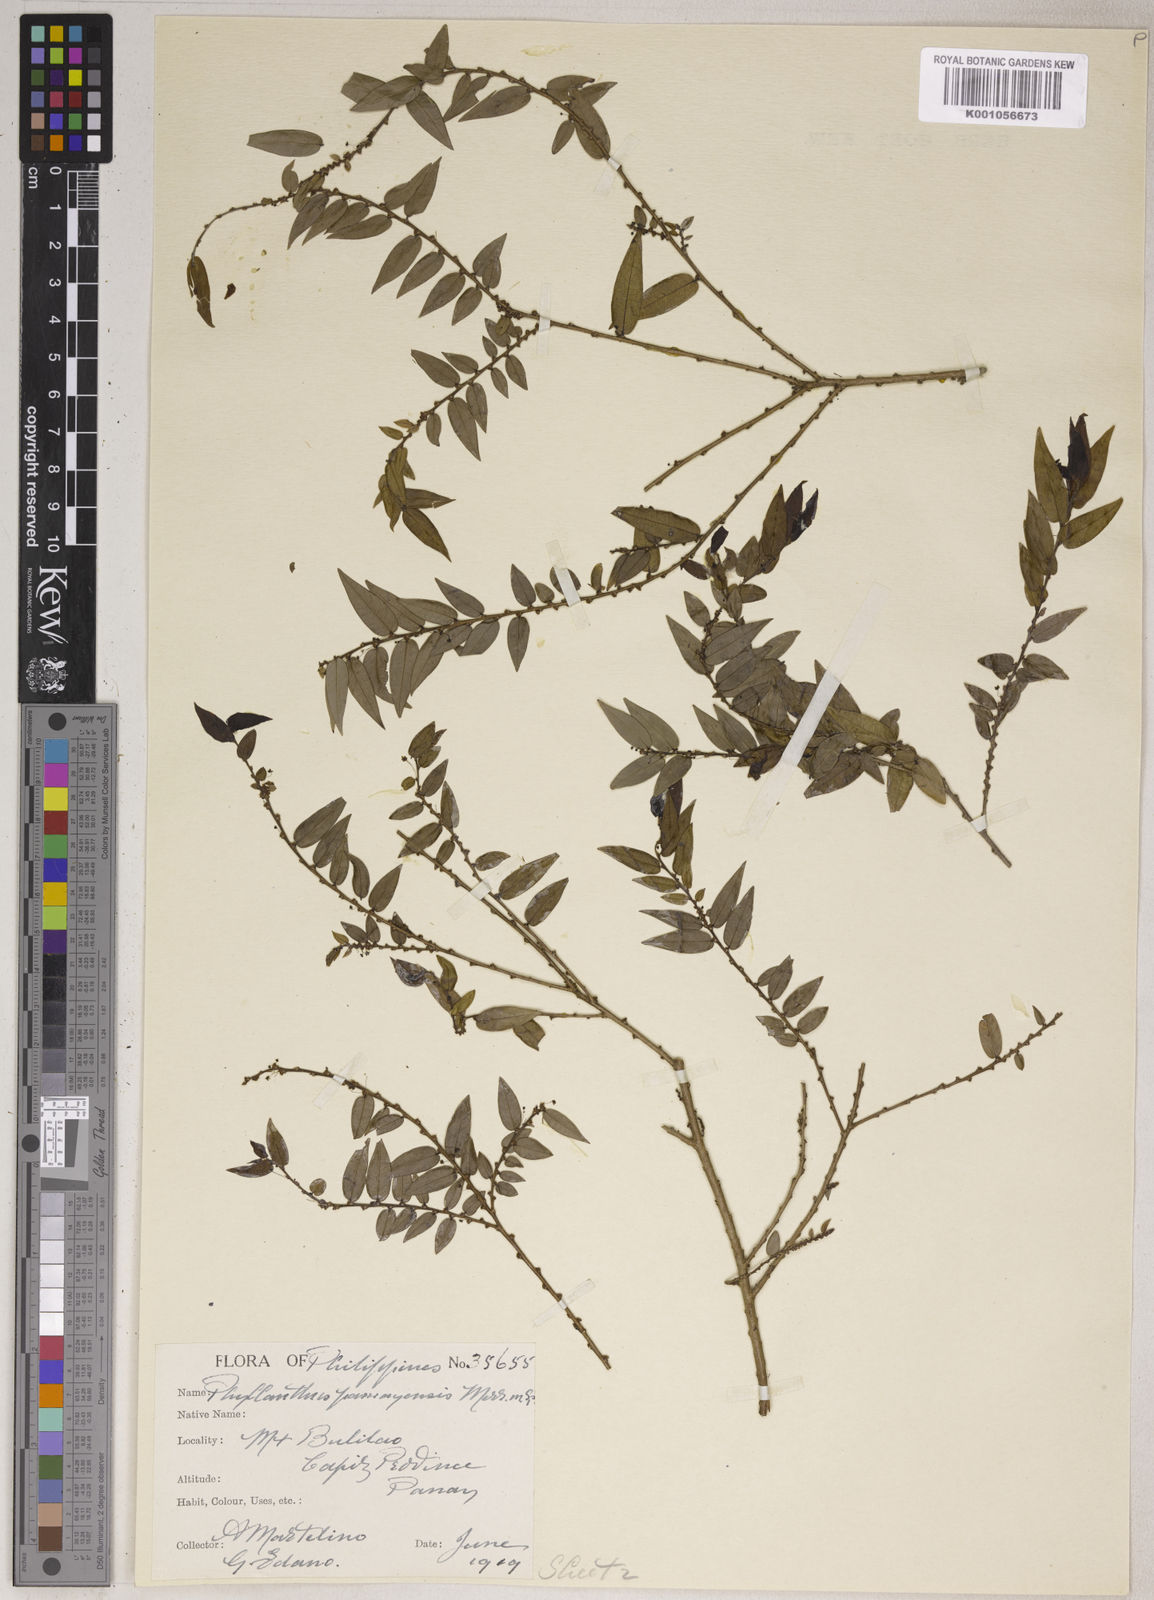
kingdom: Plantae
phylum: Tracheophyta
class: Magnoliopsida
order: Malpighiales
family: Phyllanthaceae
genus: Phyllanthus
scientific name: Phyllanthus lancifolius
